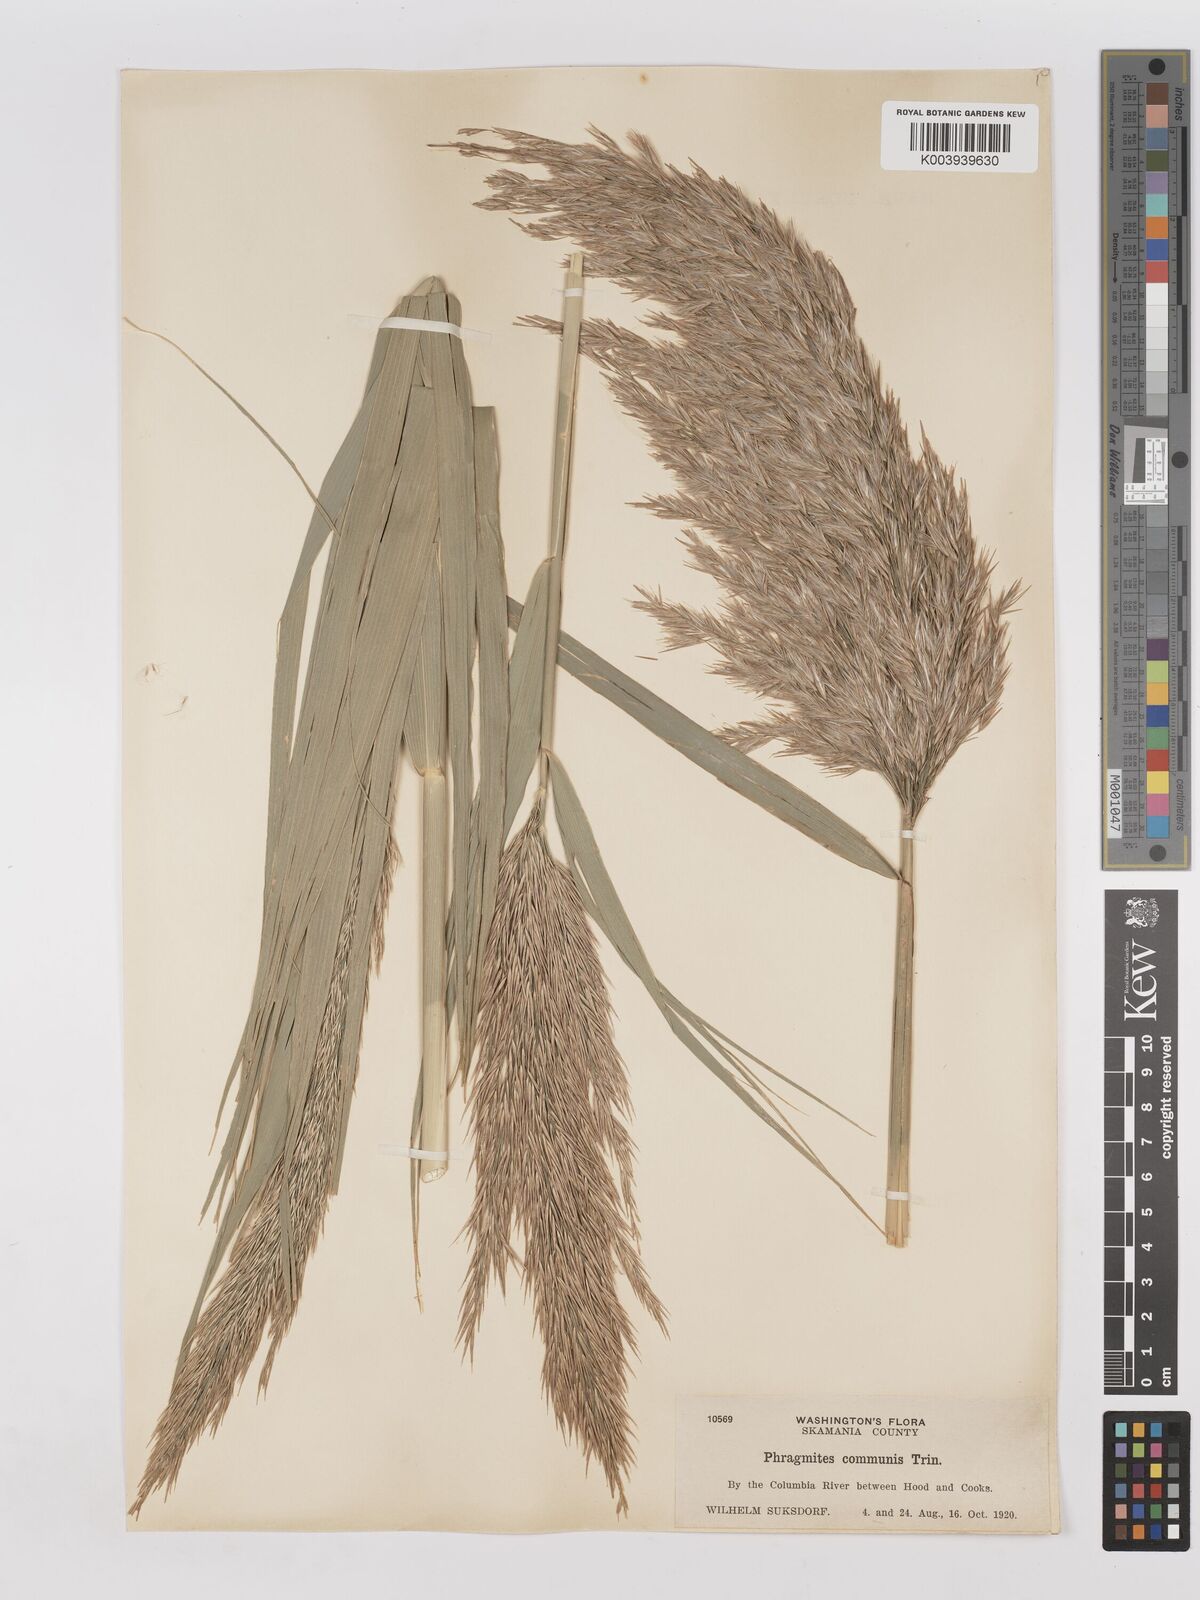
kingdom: Plantae
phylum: Tracheophyta
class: Liliopsida
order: Poales
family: Poaceae
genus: Phragmites
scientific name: Phragmites australis
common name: Common reed
